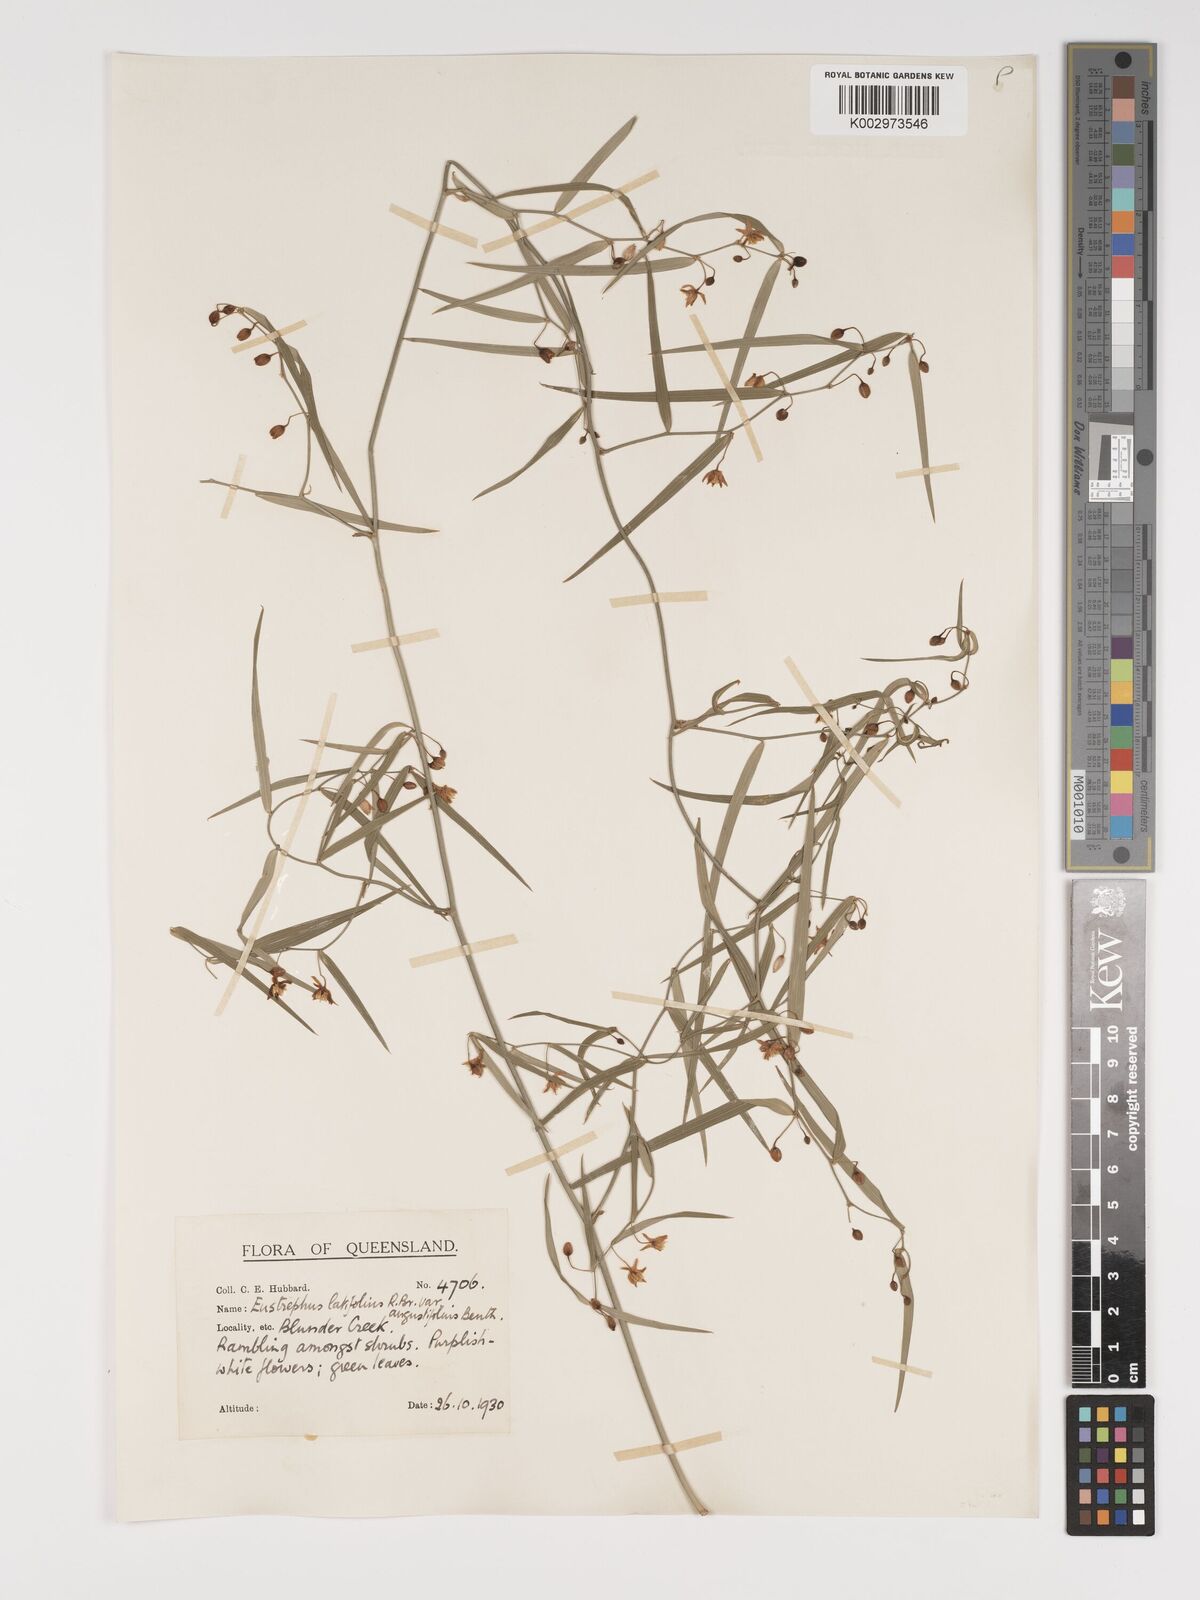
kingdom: Plantae
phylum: Tracheophyta
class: Liliopsida
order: Asparagales
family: Asparagaceae
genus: Eustrephus
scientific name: Eustrephus latifolius
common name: Orangevine
